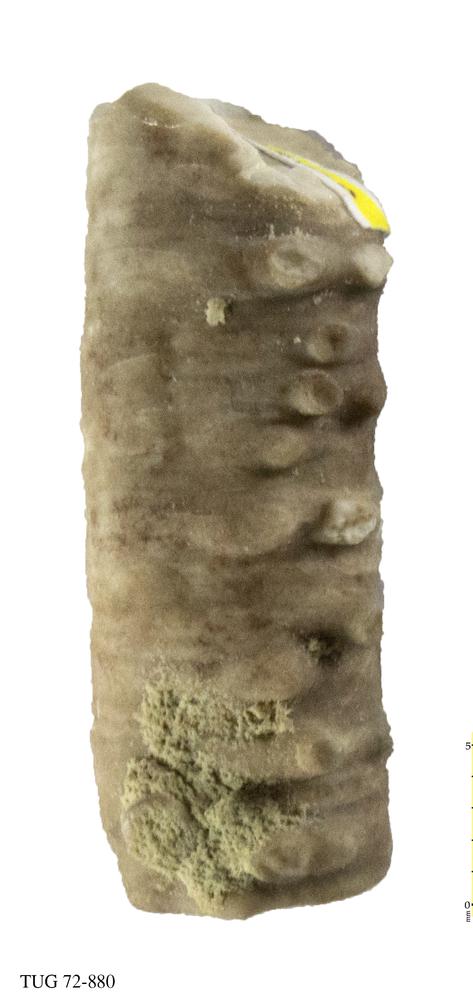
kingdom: Animalia
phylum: Echinodermata
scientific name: Echinodermata
